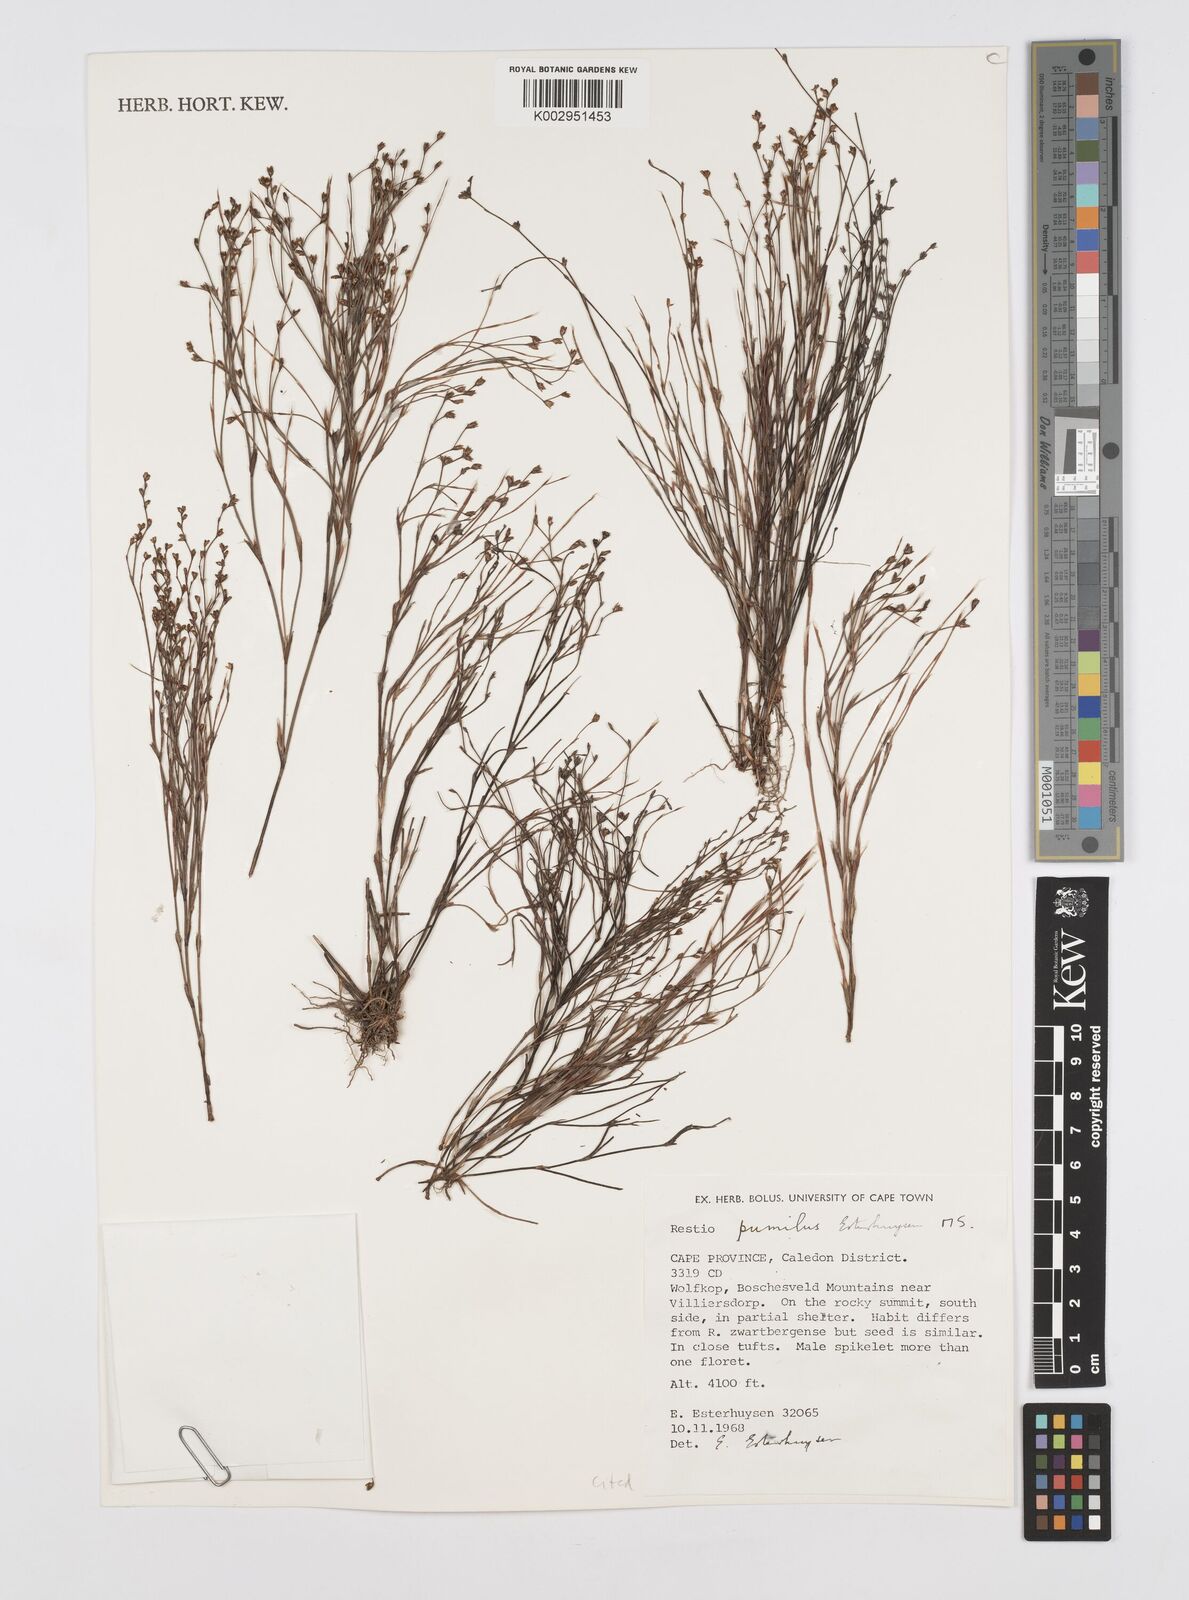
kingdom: Plantae
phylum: Tracheophyta
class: Liliopsida
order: Poales
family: Restionaceae
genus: Restio
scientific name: Restio pumilus
